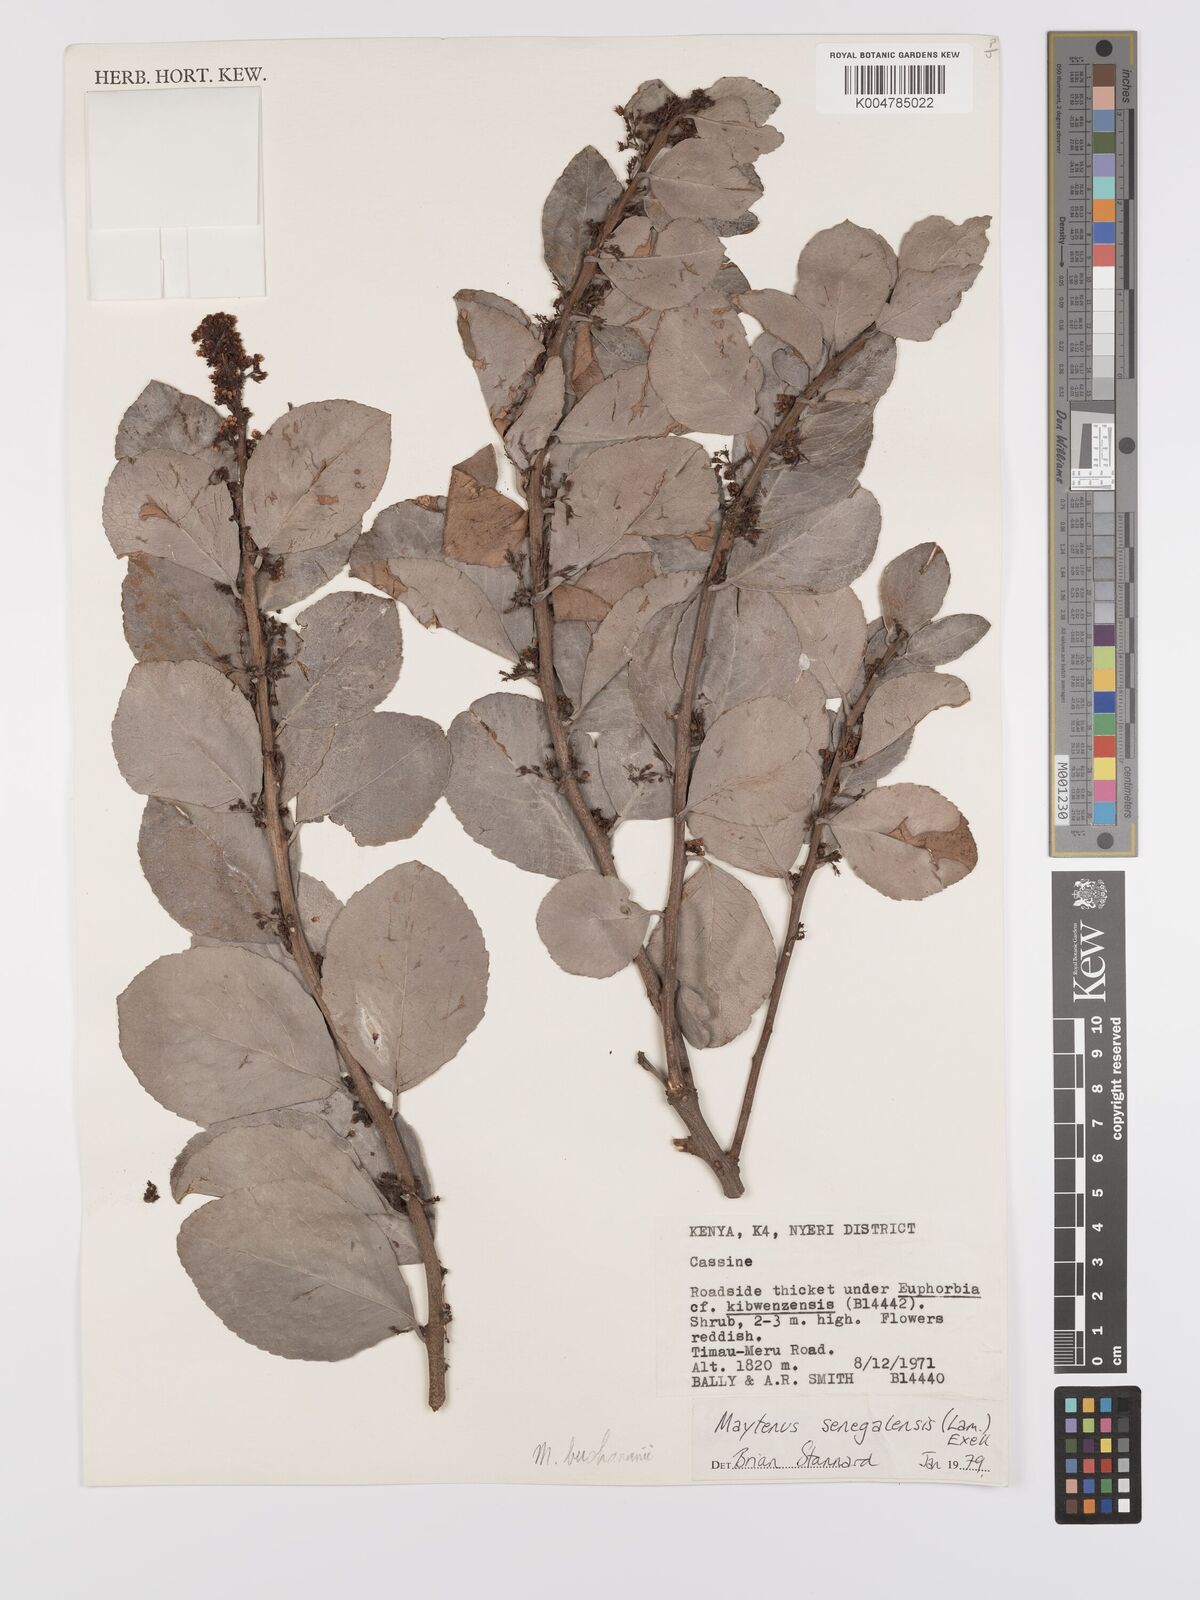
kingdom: Plantae
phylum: Tracheophyta
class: Magnoliopsida
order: Celastrales
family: Celastraceae
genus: Gymnosporia
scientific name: Gymnosporia buchananii
